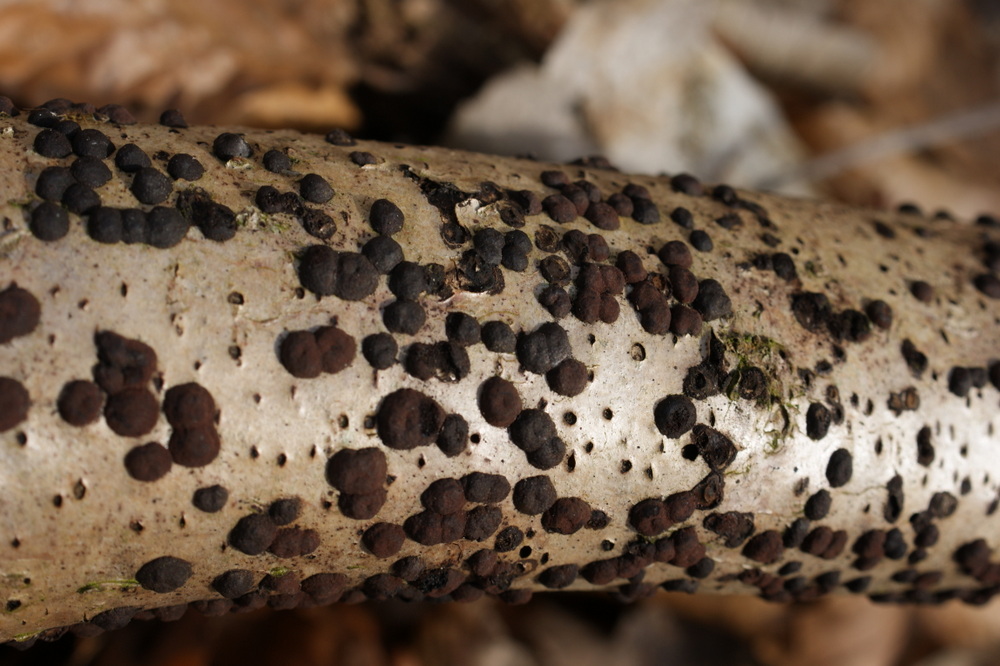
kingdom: Fungi
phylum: Ascomycota
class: Sordariomycetes
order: Xylariales
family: Hypoxylaceae
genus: Hypoxylon
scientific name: Hypoxylon fuscum
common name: kegleformet kulbær
